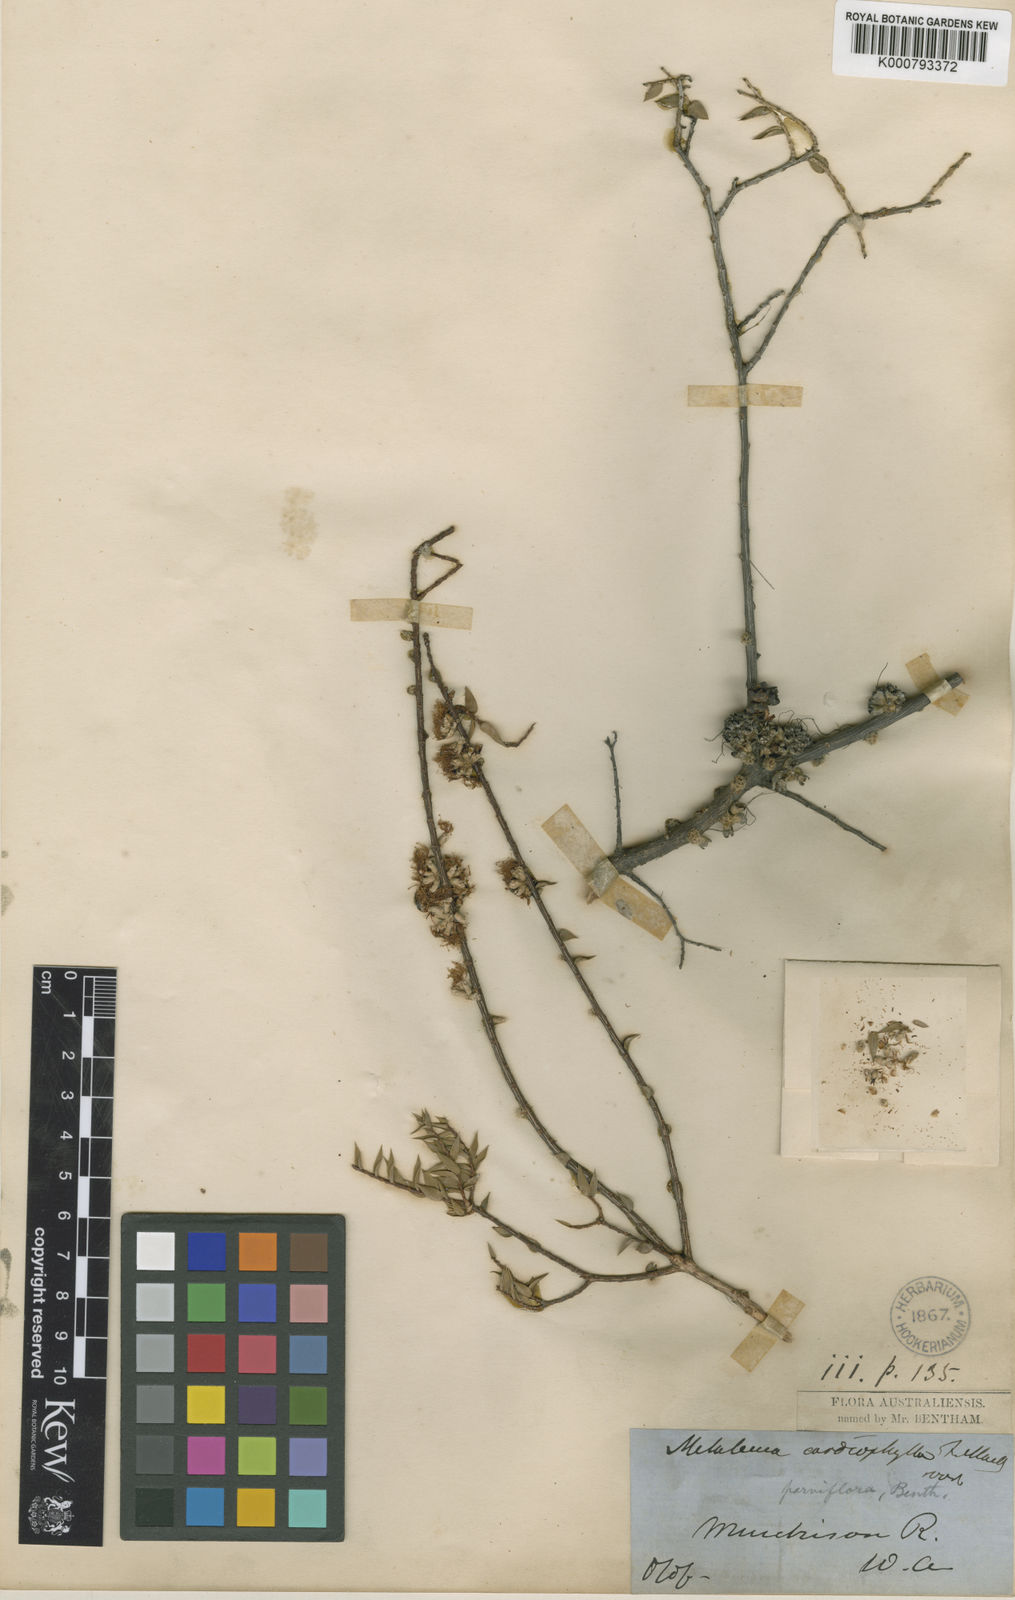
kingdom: Plantae
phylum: Tracheophyta
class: Magnoliopsida
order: Myrtales
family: Myrtaceae
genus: Melaleuca
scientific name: Melaleuca coronicarpa
